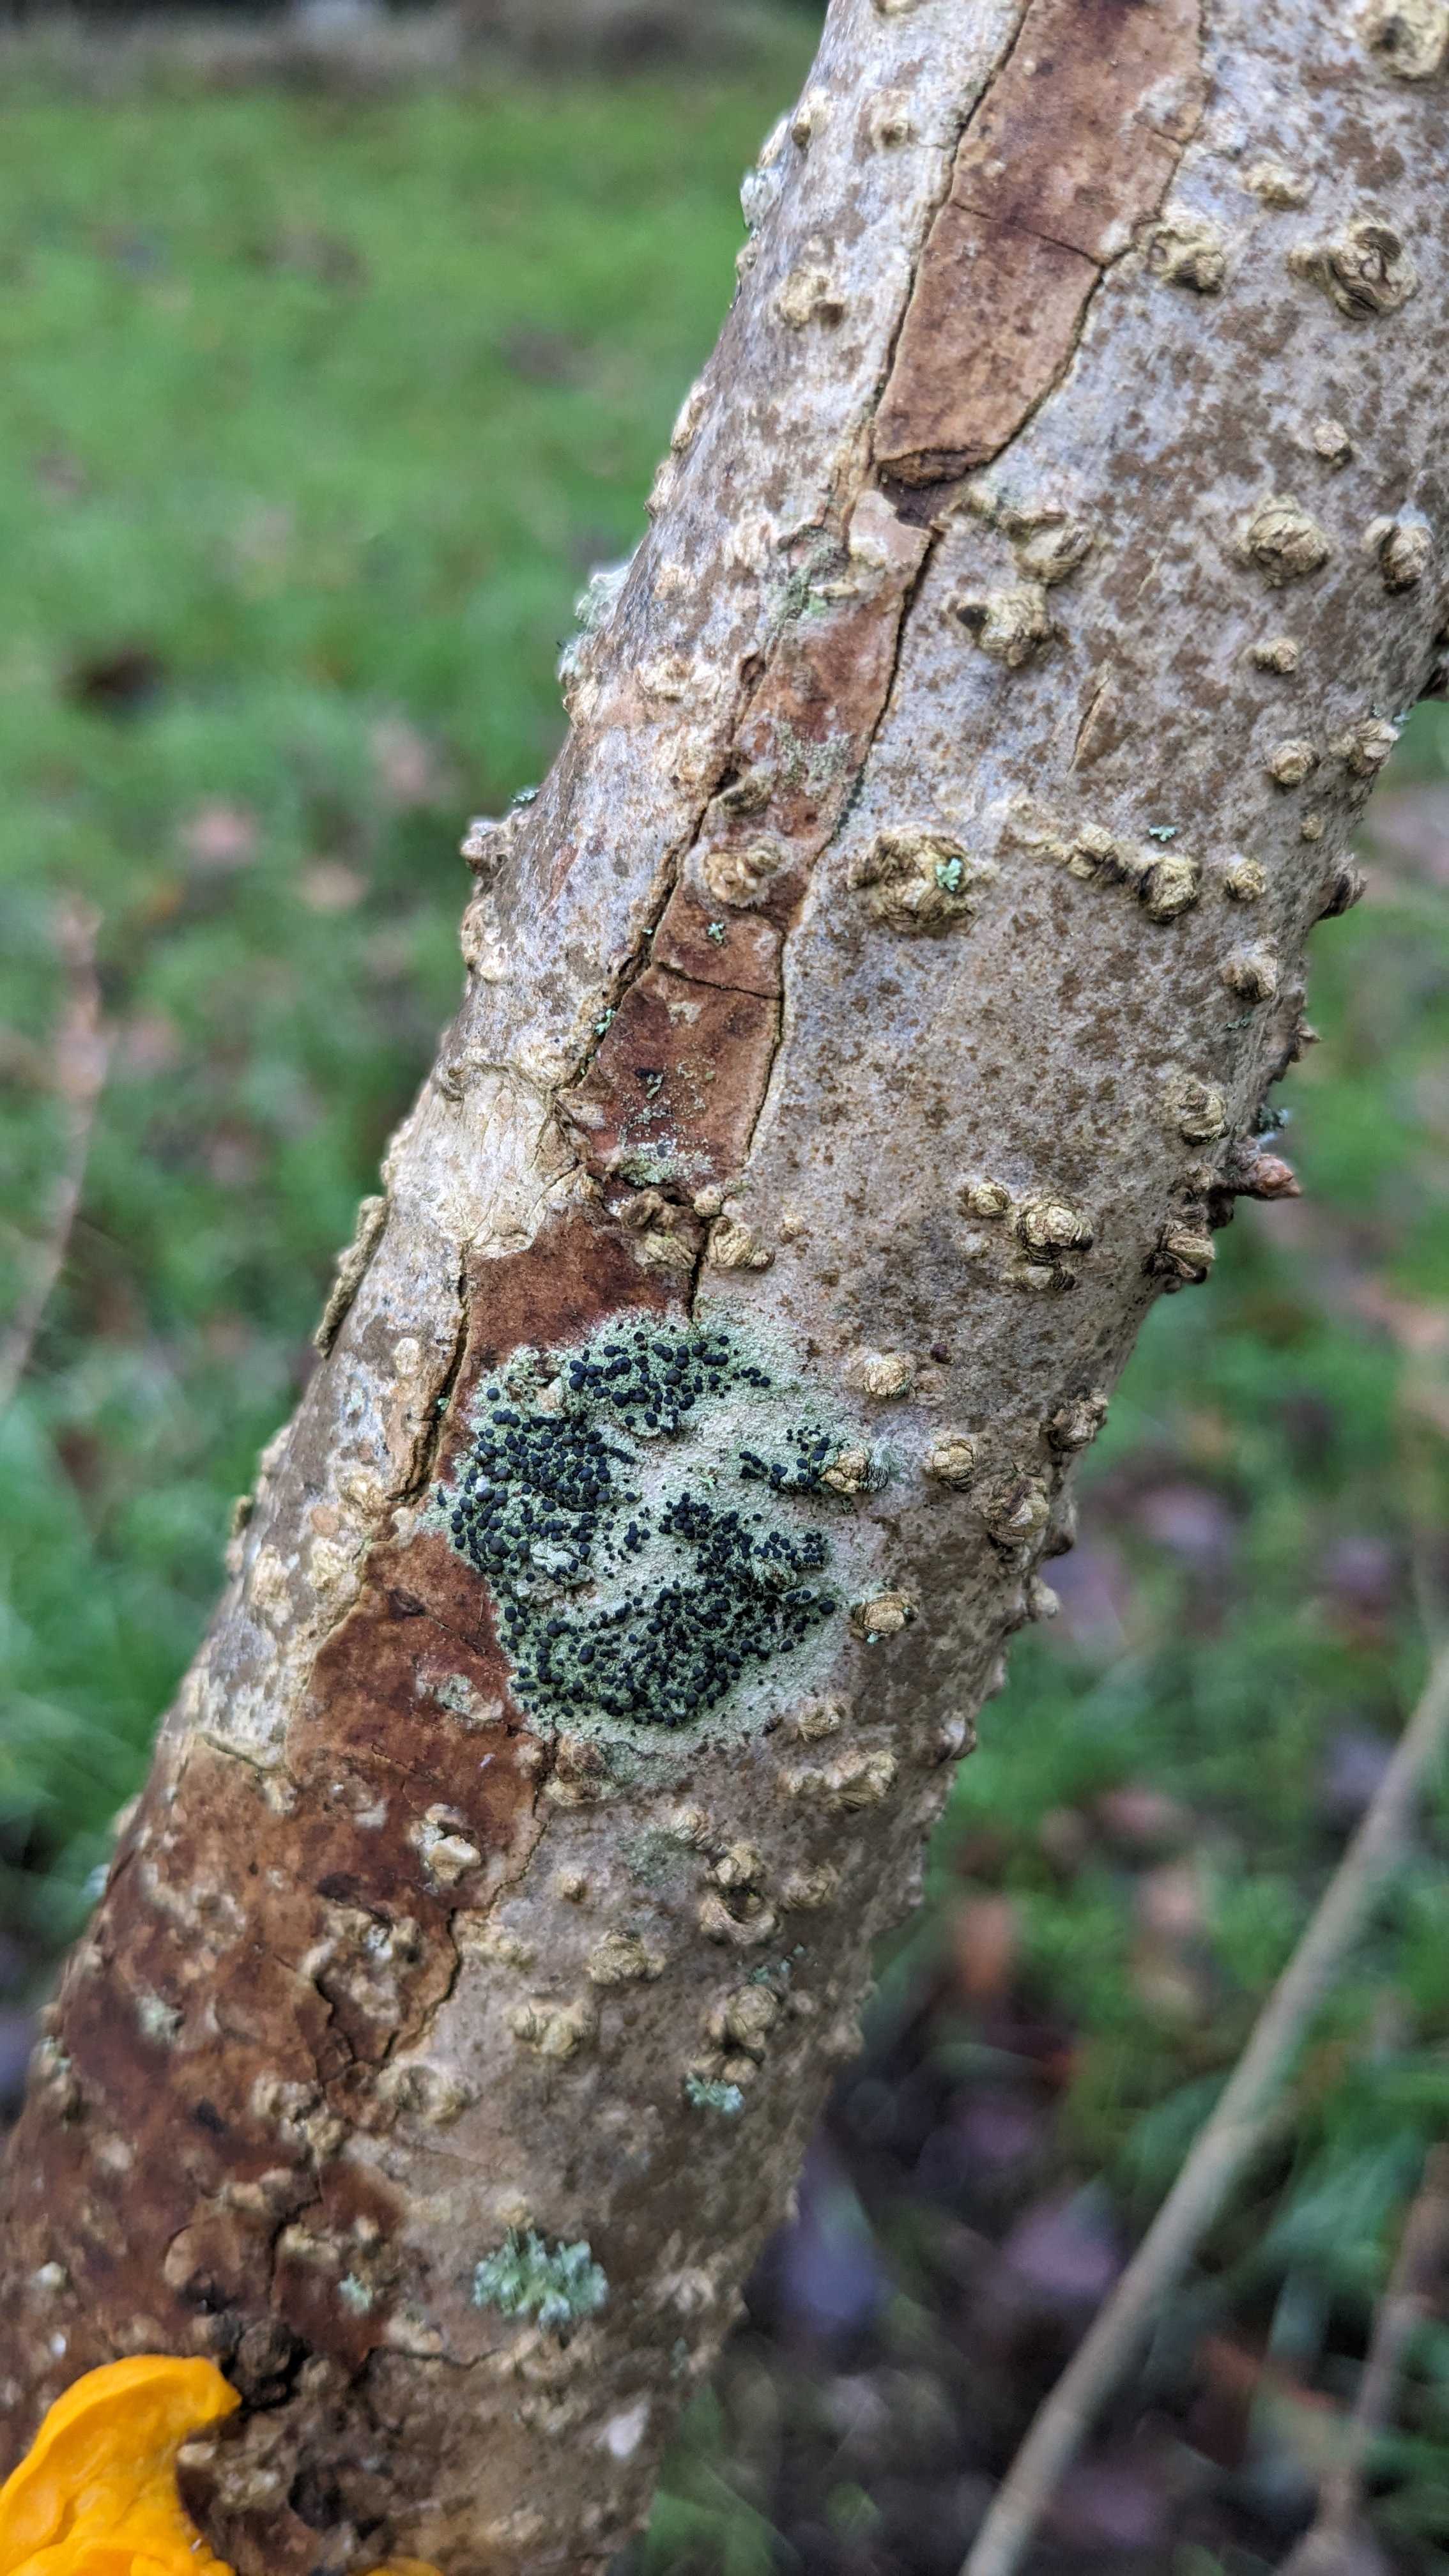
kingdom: Fungi
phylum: Ascomycota
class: Lecanoromycetes
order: Lecanorales
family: Lecanoraceae
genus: Lecidella
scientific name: Lecidella elaeochroma
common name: grågrøn skivelav
